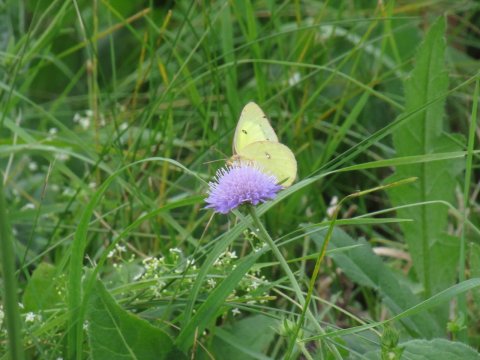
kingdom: Animalia
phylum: Arthropoda
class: Insecta
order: Lepidoptera
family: Pieridae
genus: Colias
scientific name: Colias philodice
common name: Clouded Sulphur
